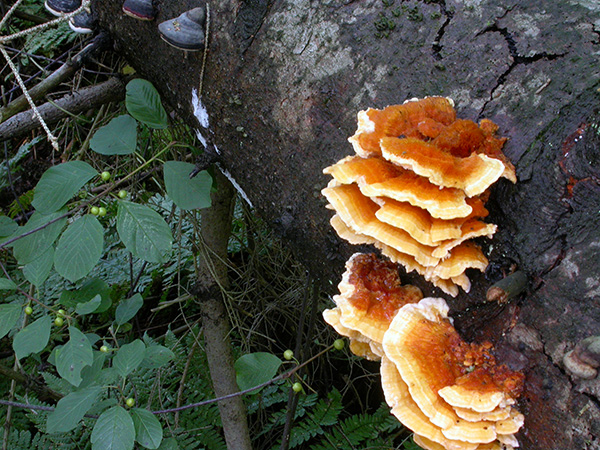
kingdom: Fungi
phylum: Basidiomycota
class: Agaricomycetes
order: Polyporales
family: Pycnoporellaceae
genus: Pycnoporellus
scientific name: Pycnoporellus fulgens
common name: flammeporesvamp
